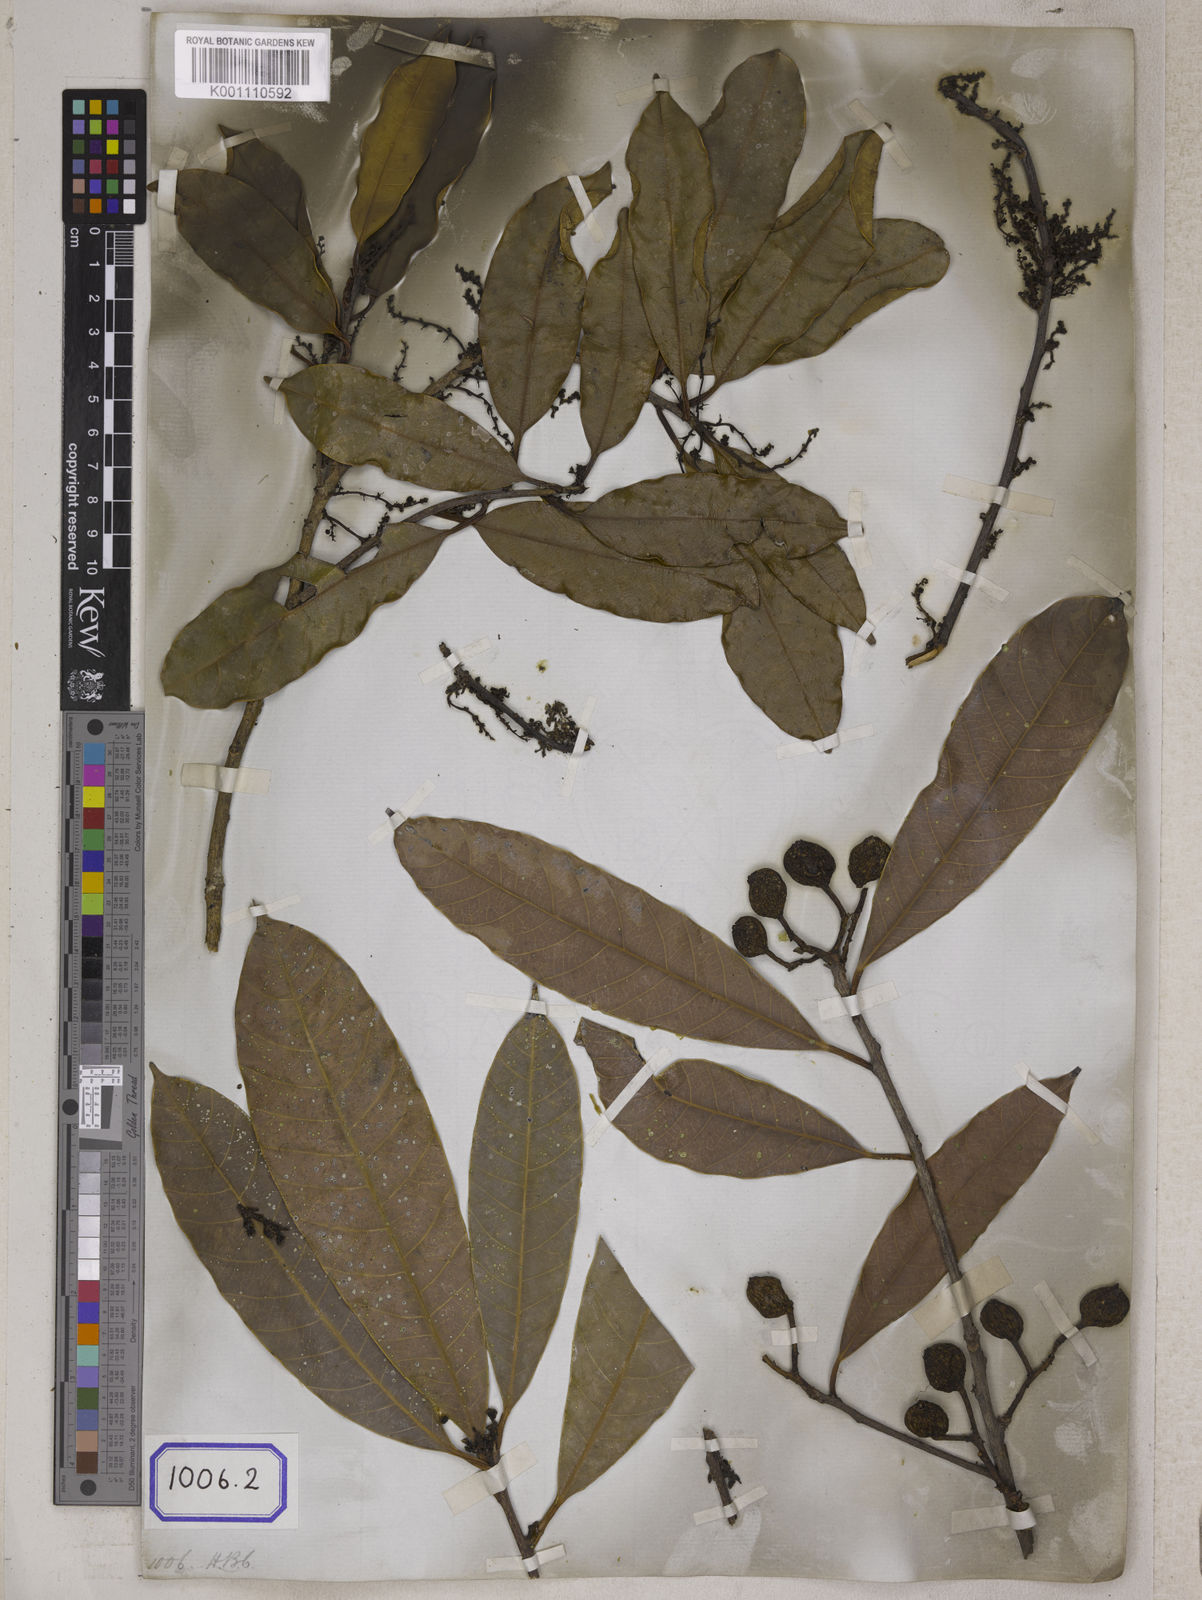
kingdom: Plantae
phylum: Tracheophyta
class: Magnoliopsida
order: Sapindales
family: Anacardiaceae
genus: Drimycarpus
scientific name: Drimycarpus racemosus
